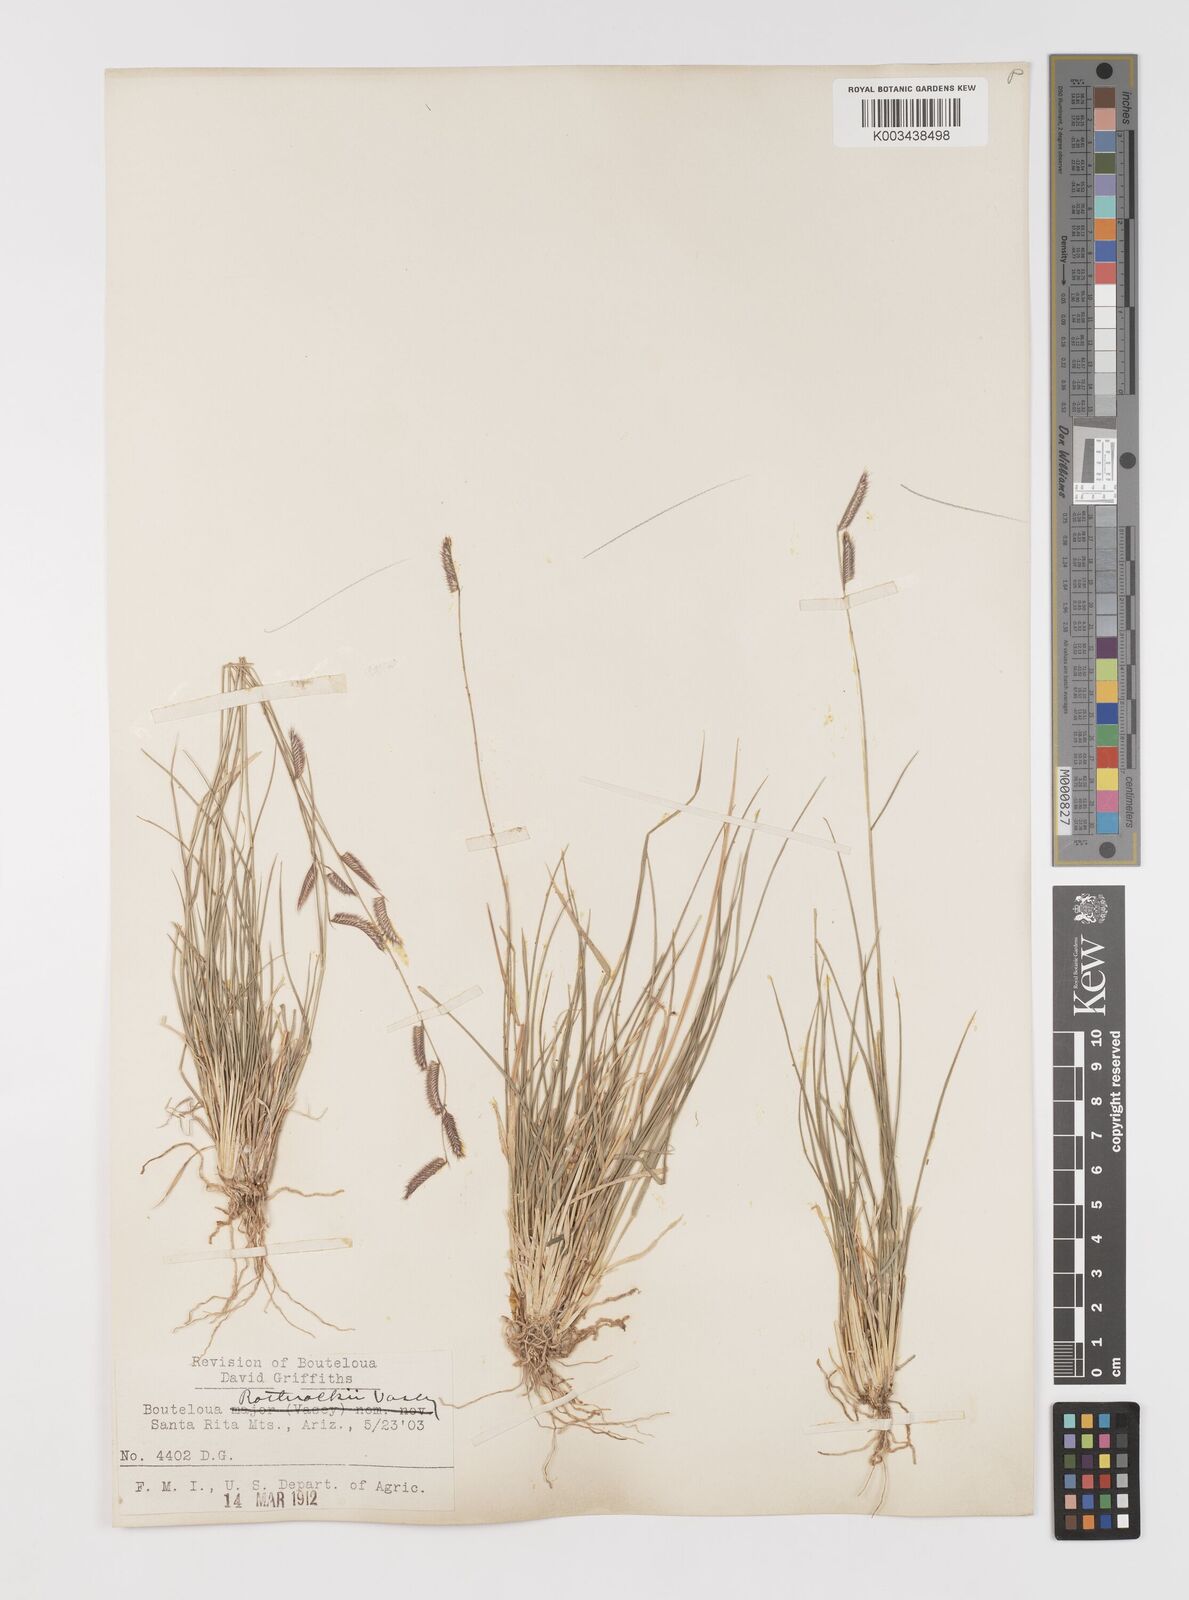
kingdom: Plantae
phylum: Tracheophyta
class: Liliopsida
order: Poales
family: Poaceae
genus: Bouteloua
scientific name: Bouteloua
